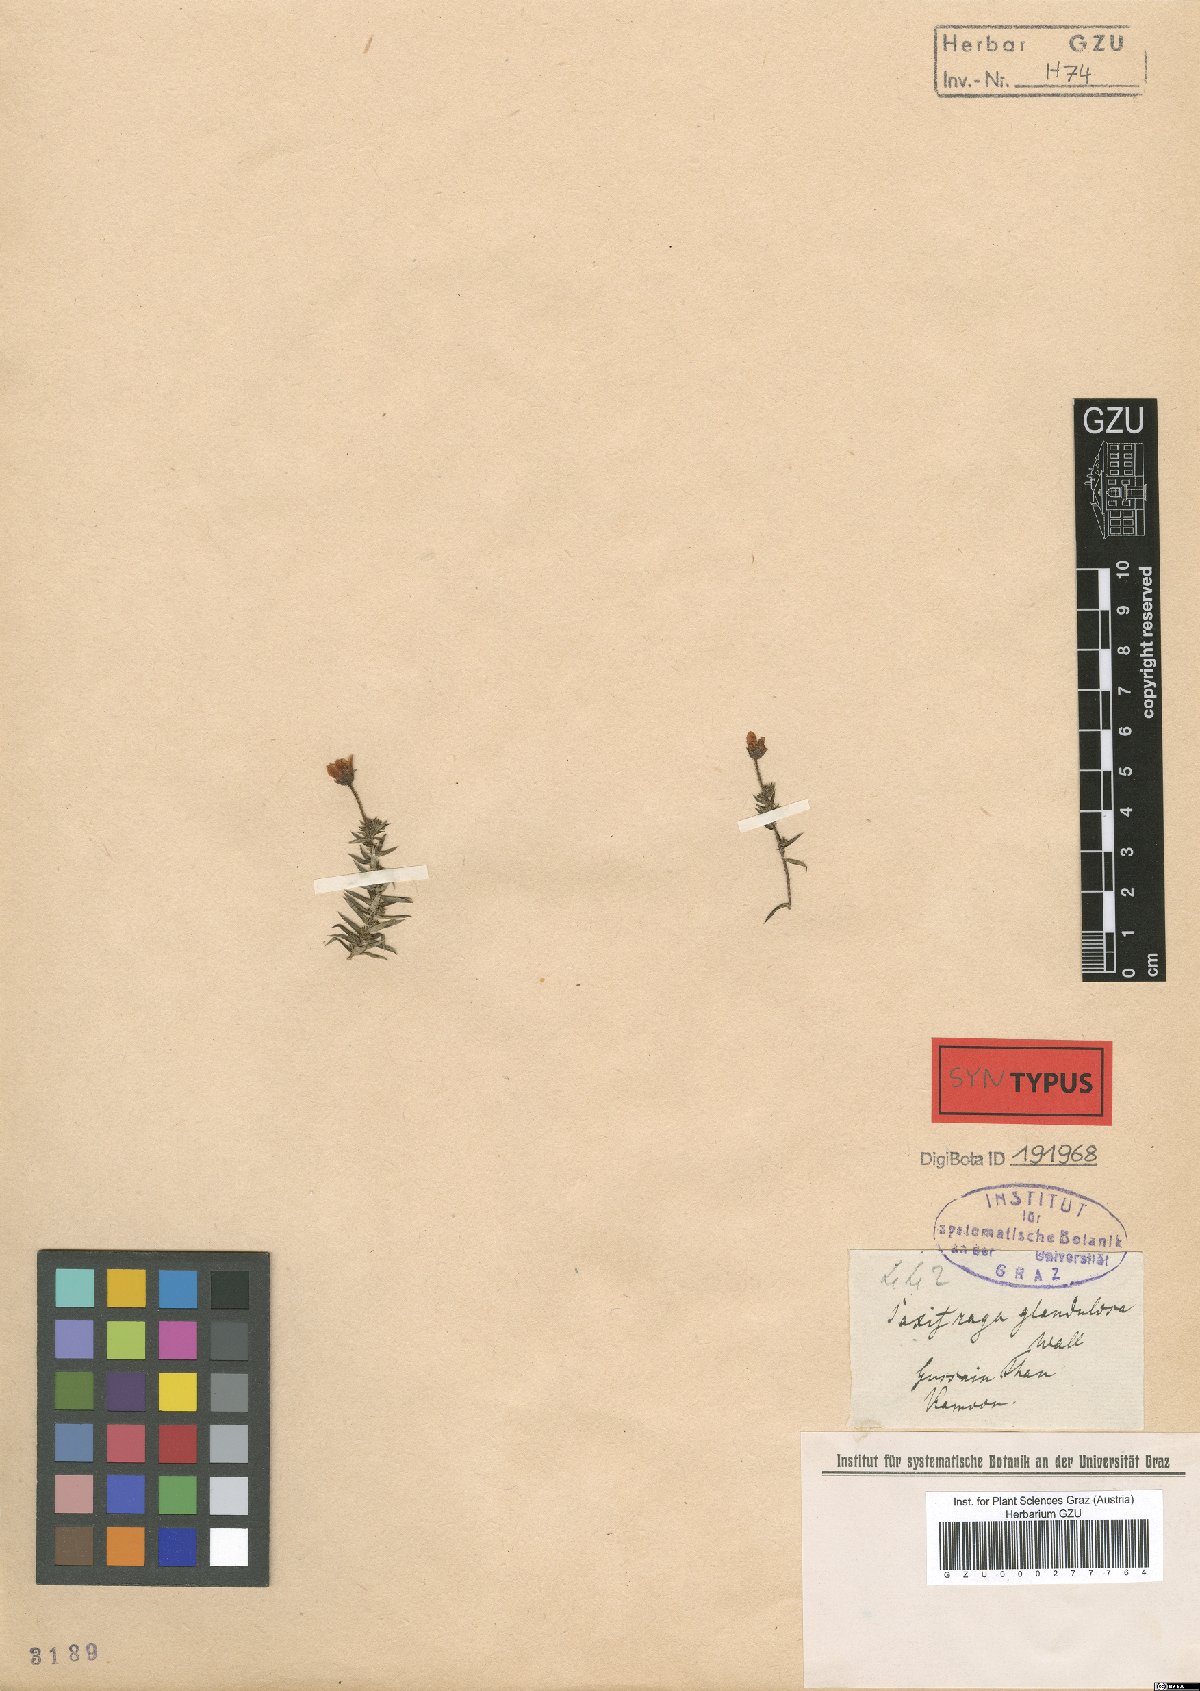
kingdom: Plantae
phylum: Tracheophyta
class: Magnoliopsida
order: Saxifragales
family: Saxifragaceae
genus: Saxifraga
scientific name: Saxifraga bronchialis
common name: Matted saxifrage
